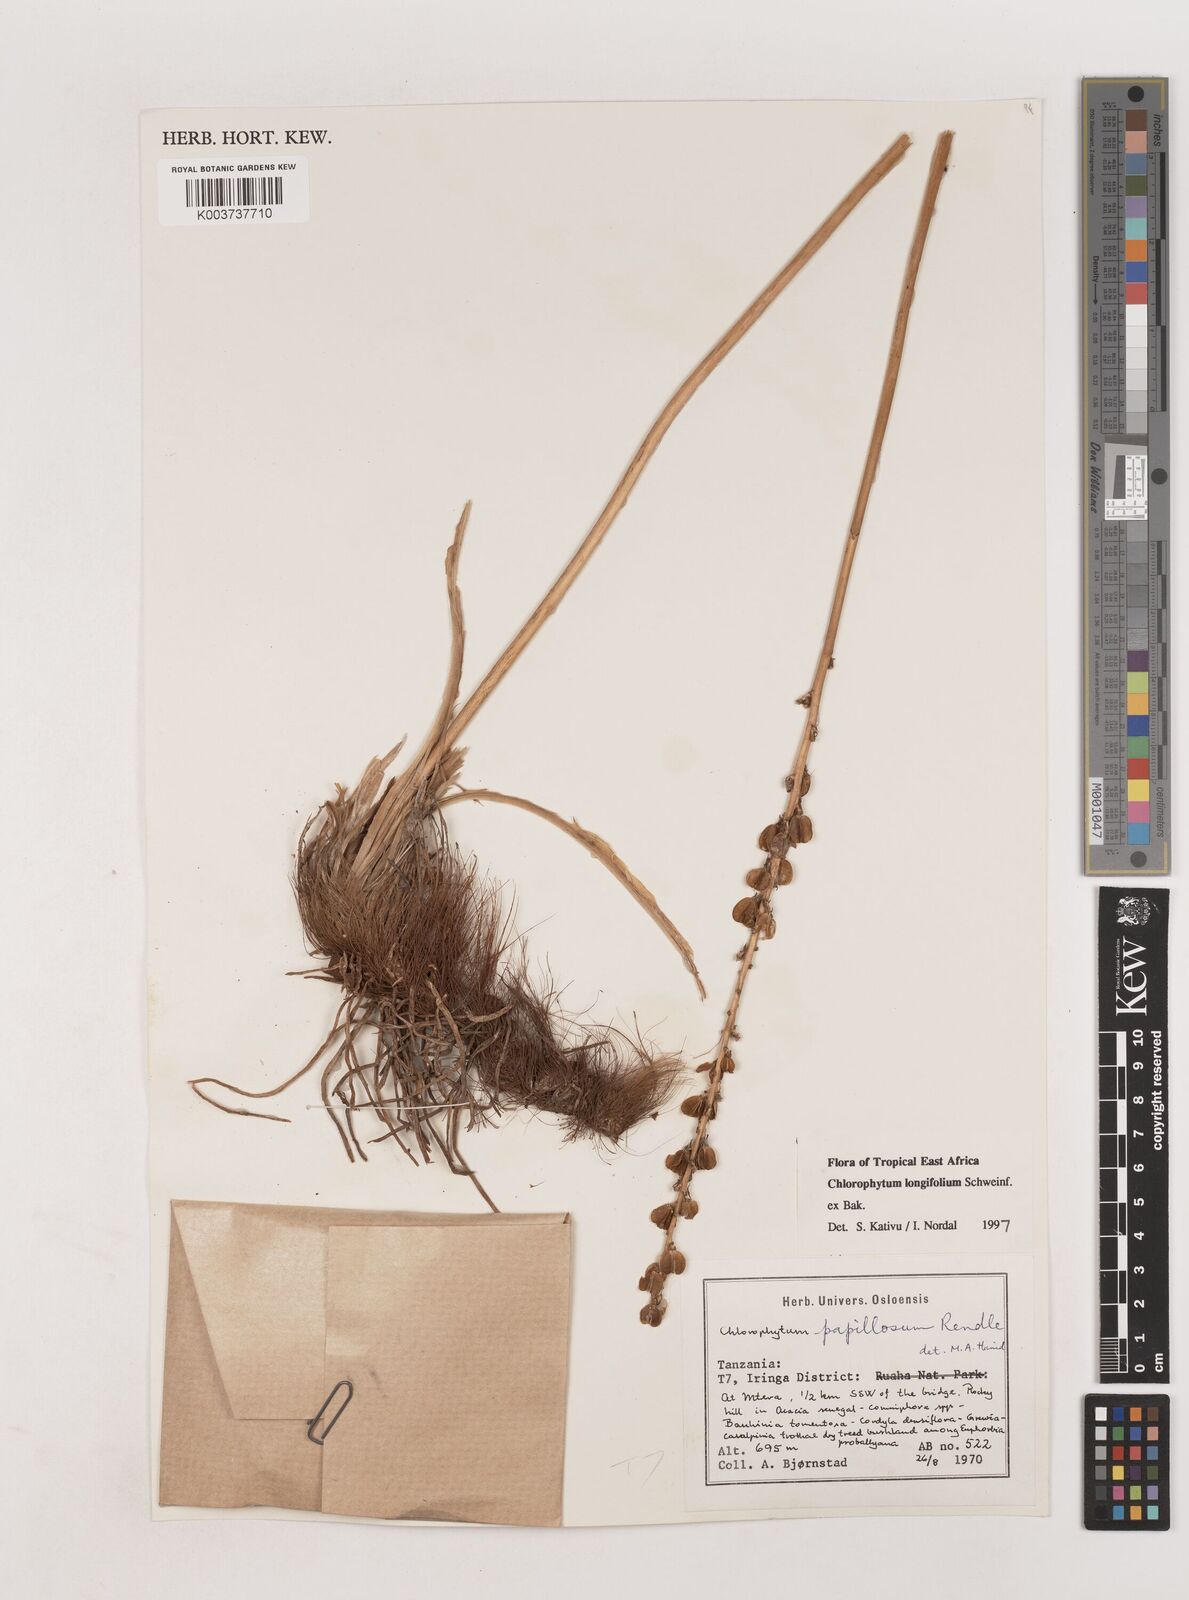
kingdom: Plantae
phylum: Tracheophyta
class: Liliopsida
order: Asparagales
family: Asparagaceae
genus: Chlorophytum
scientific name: Chlorophytum longifolium
